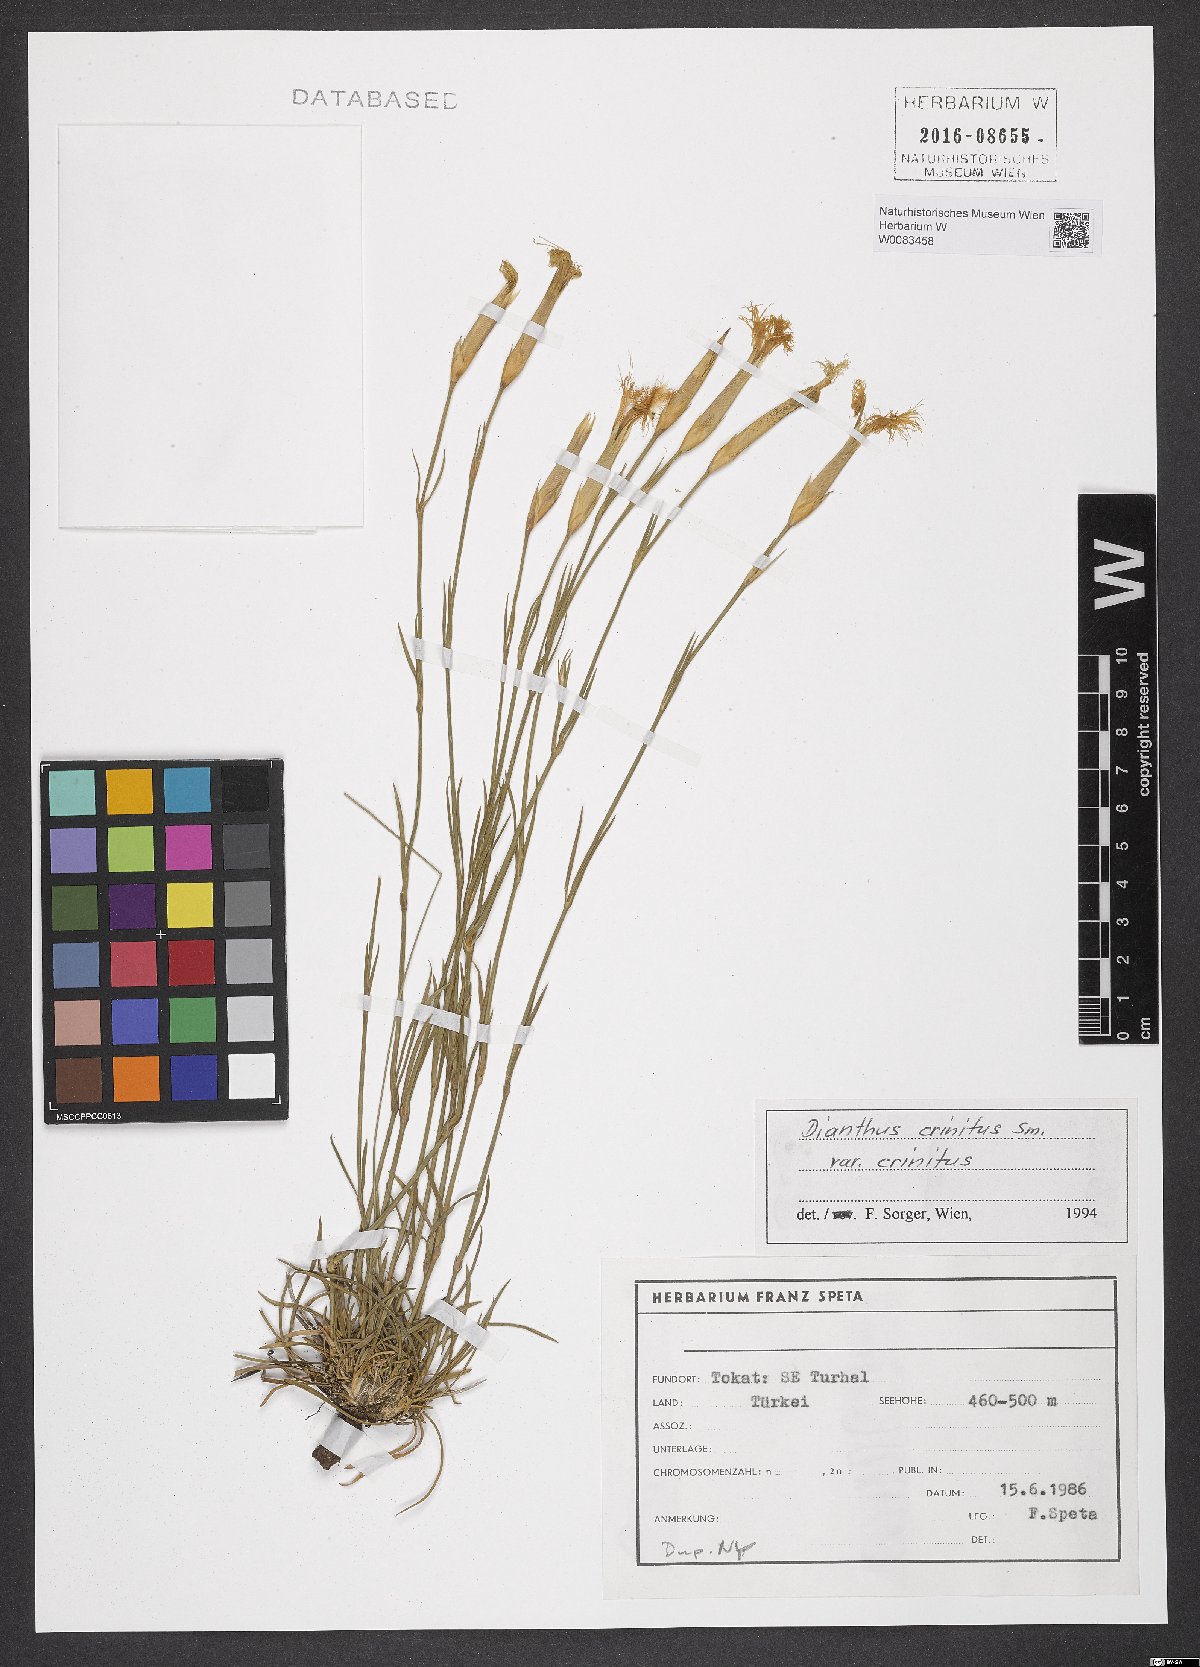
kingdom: Plantae
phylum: Tracheophyta
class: Magnoliopsida
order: Caryophyllales
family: Caryophyllaceae
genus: Dianthus
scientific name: Dianthus crinitus
